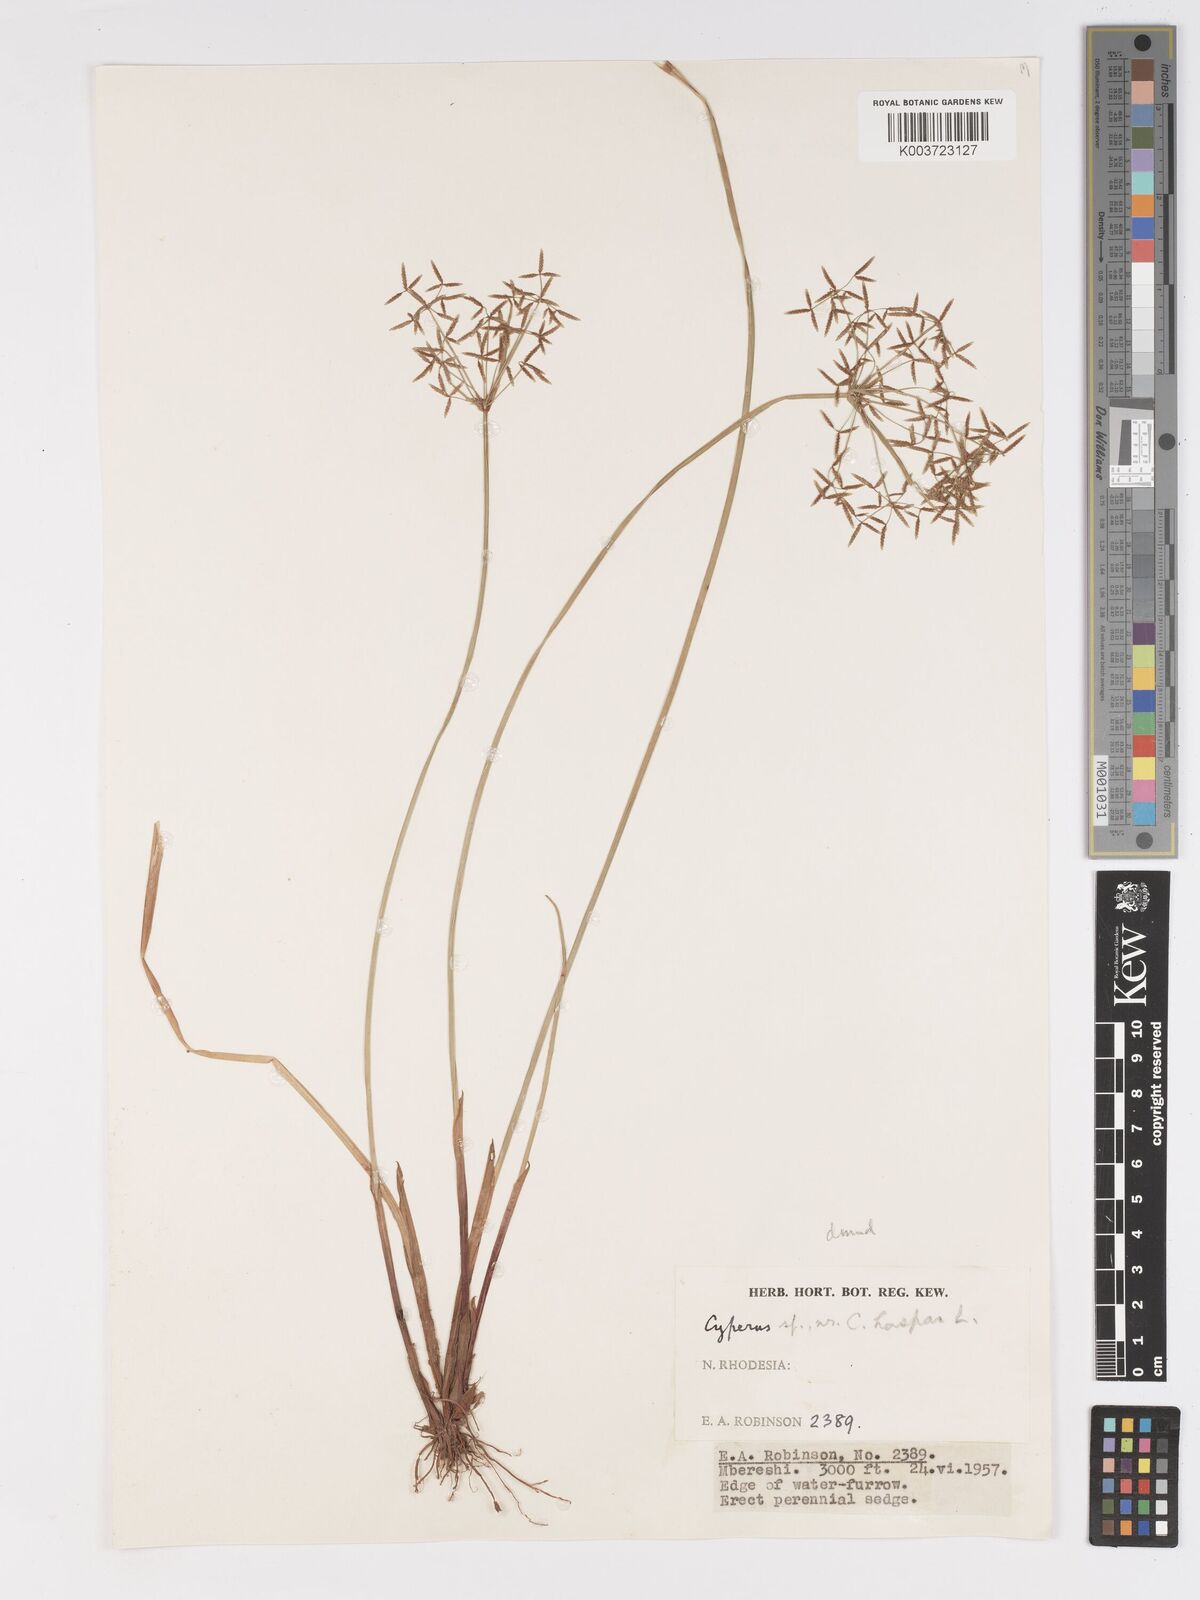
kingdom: Plantae
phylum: Tracheophyta
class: Liliopsida
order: Poales
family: Cyperaceae
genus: Cyperus
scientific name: Cyperus haspan
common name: Haspan flatsedge
